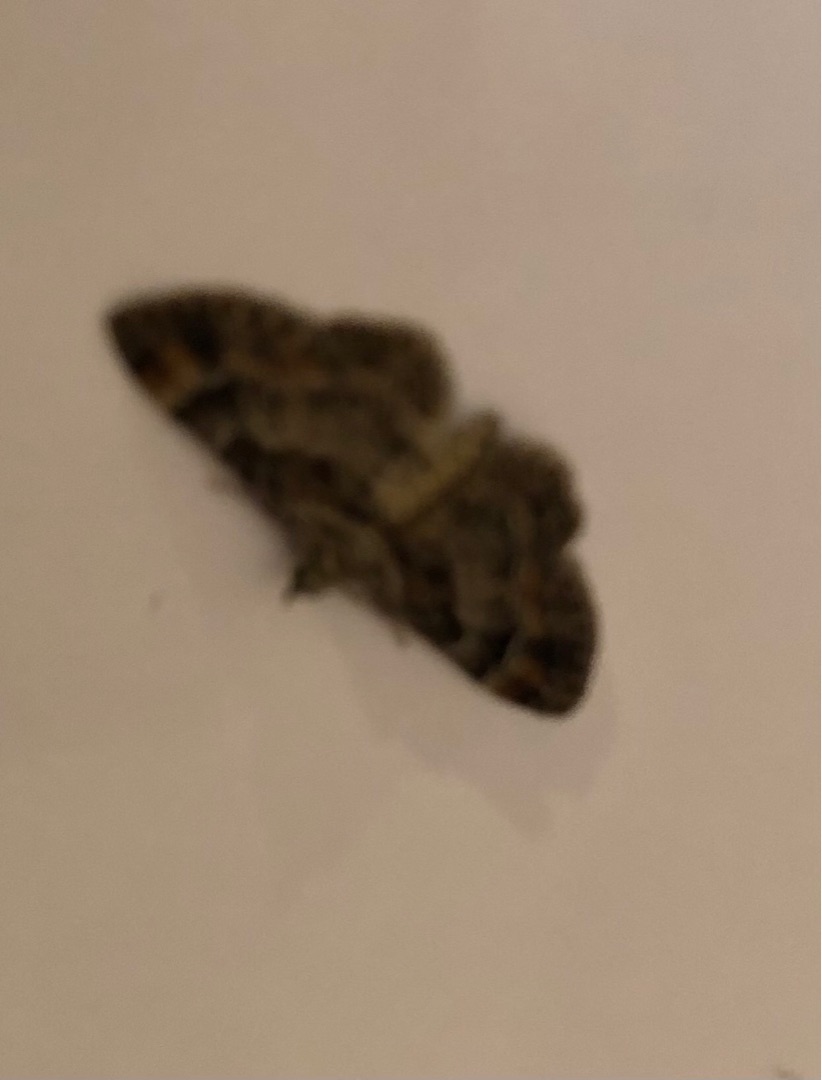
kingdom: Animalia
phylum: Arthropoda
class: Insecta
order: Lepidoptera
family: Geometridae
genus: Gymnoscelis
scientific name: Gymnoscelis rufifasciata
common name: Rødbåndet dværgmåler
